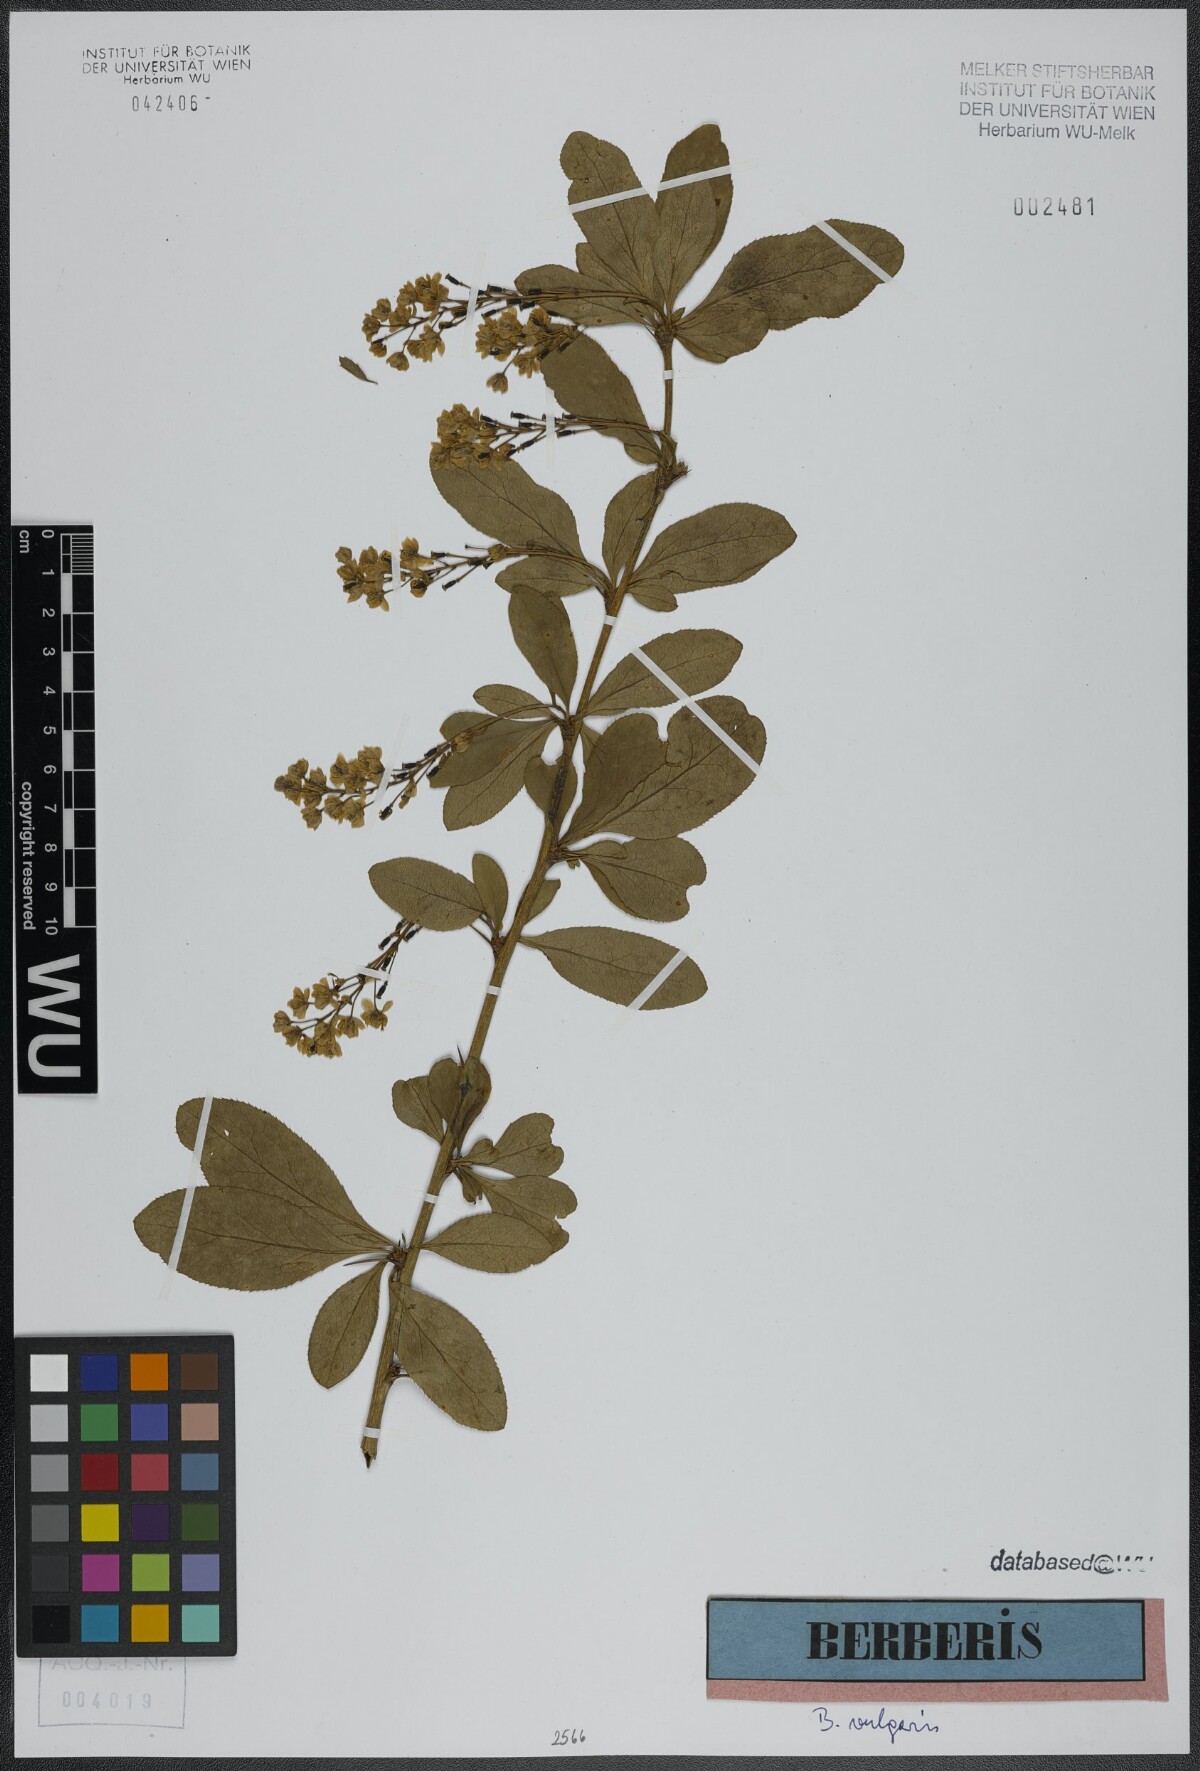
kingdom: Plantae
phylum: Tracheophyta
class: Magnoliopsida
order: Ranunculales
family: Berberidaceae
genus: Berberis
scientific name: Berberis vulgaris
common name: Barberry
